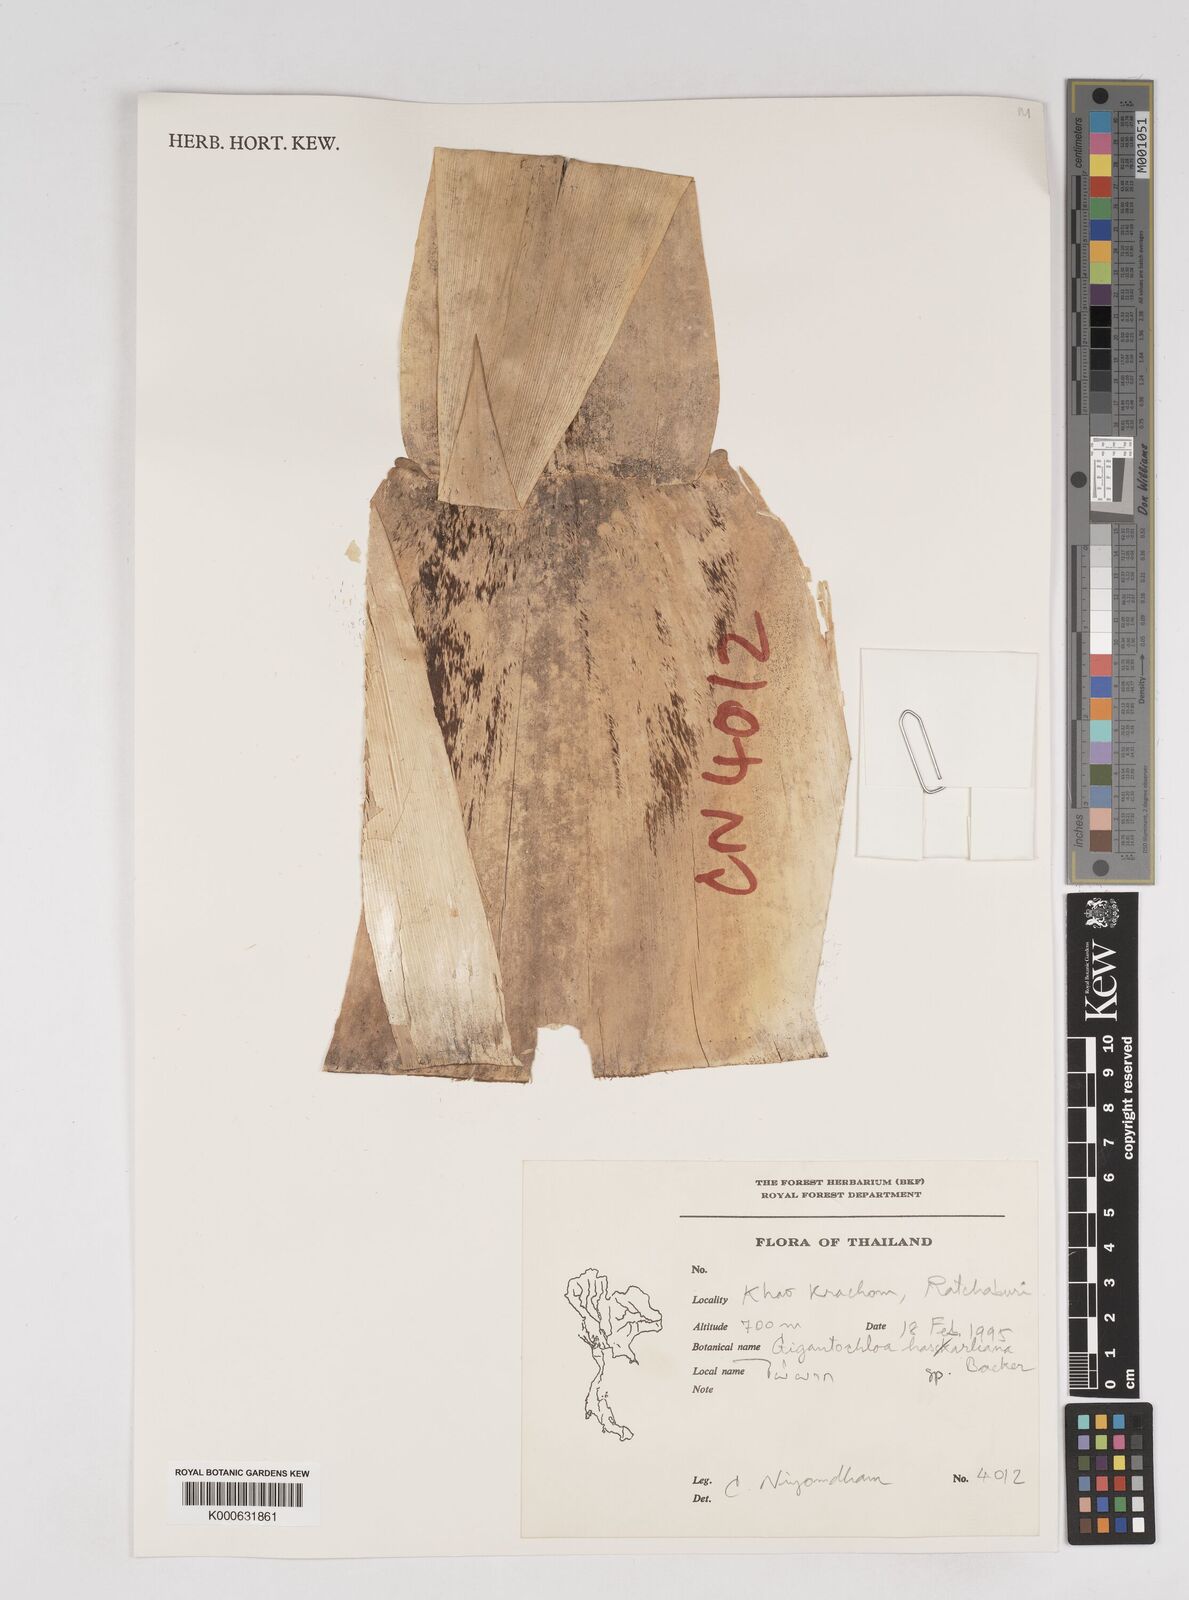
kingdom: Plantae
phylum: Tracheophyta
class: Liliopsida
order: Poales
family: Poaceae
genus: Gigantochloa
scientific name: Gigantochloa
